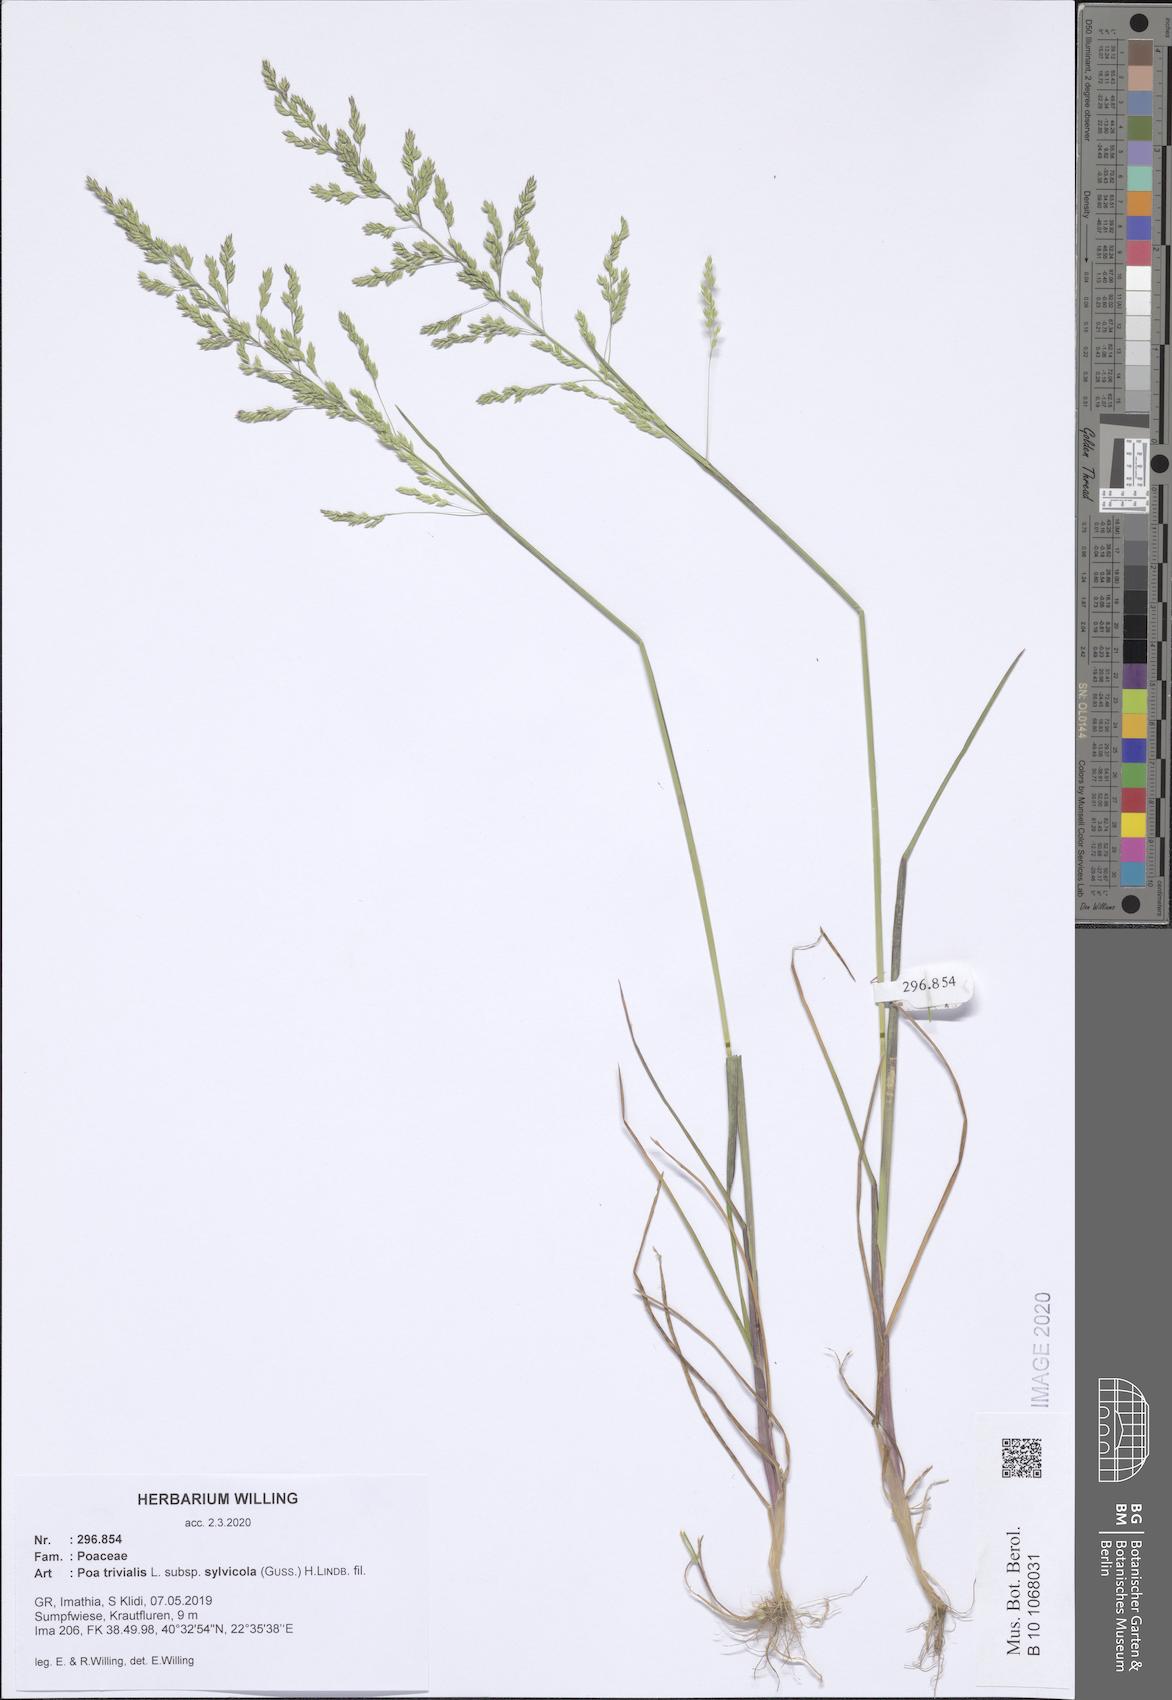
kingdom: Plantae
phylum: Tracheophyta
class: Liliopsida
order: Poales
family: Poaceae
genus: Poa
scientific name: Poa trivialis
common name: Rough bluegrass
